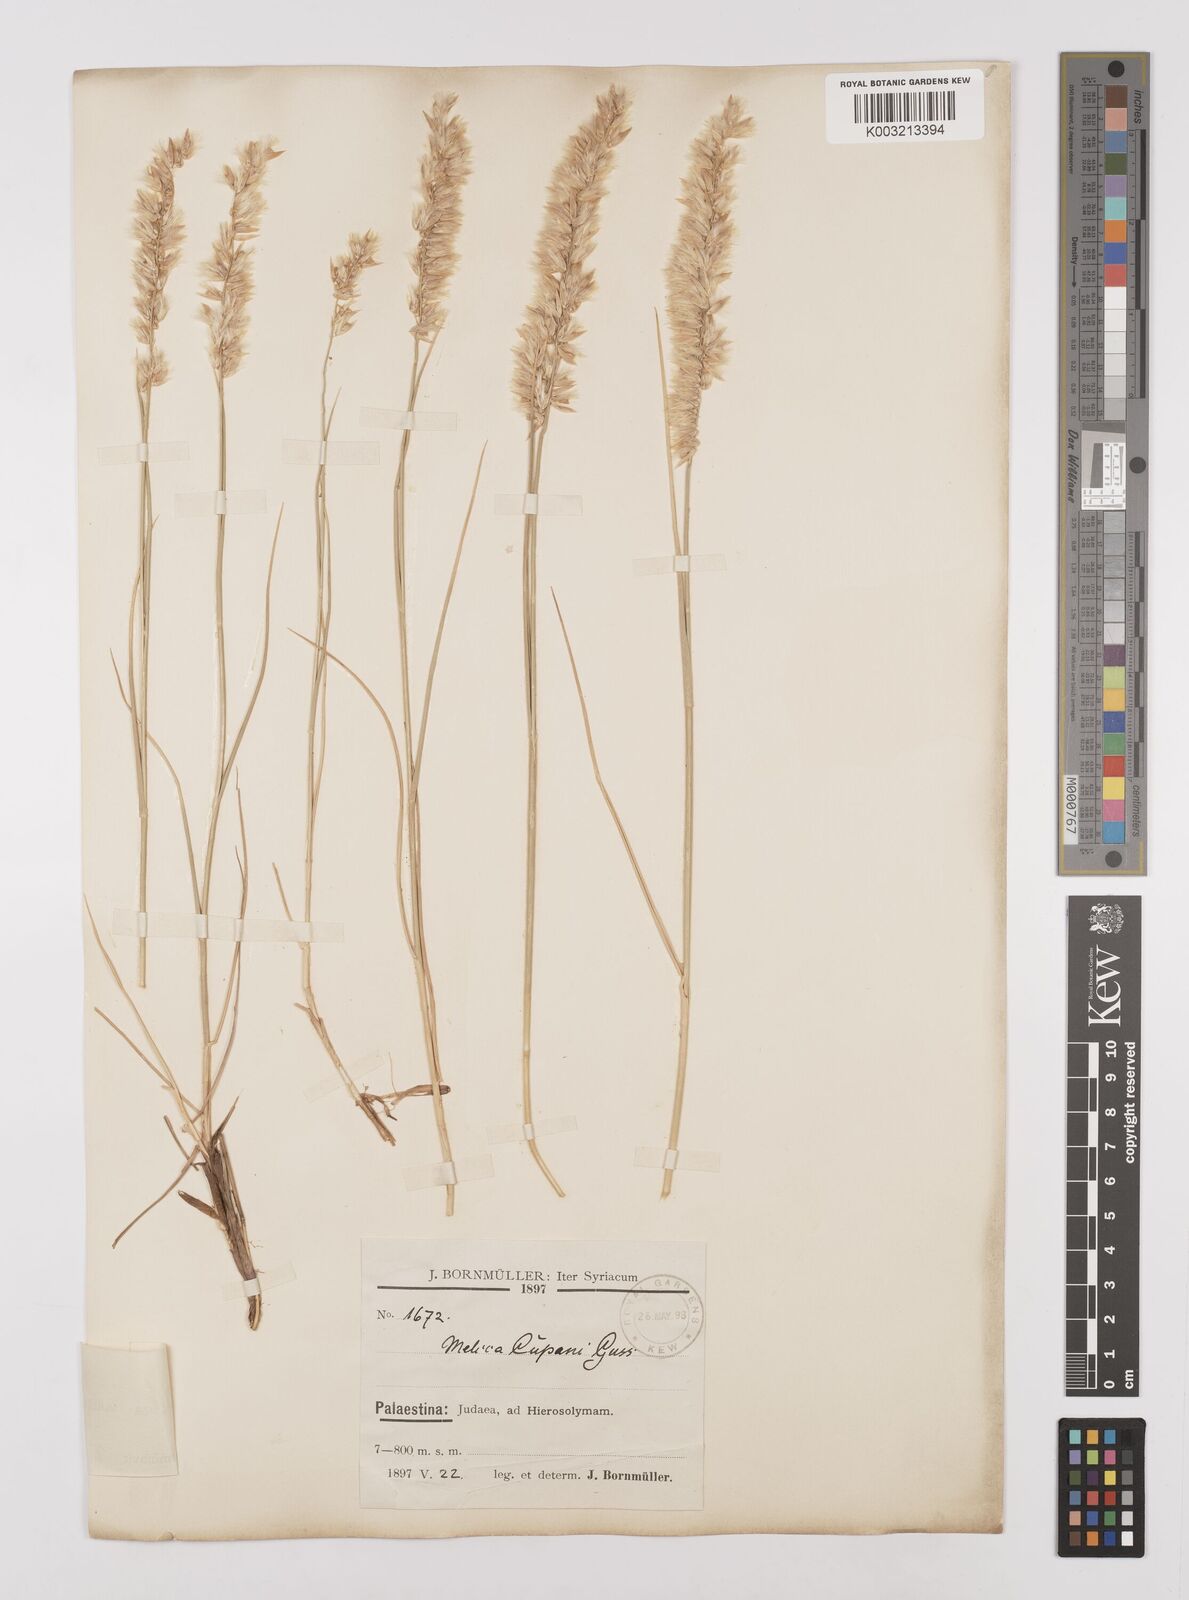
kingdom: Plantae
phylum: Tracheophyta
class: Liliopsida
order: Poales
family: Poaceae
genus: Melica
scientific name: Melica persica
